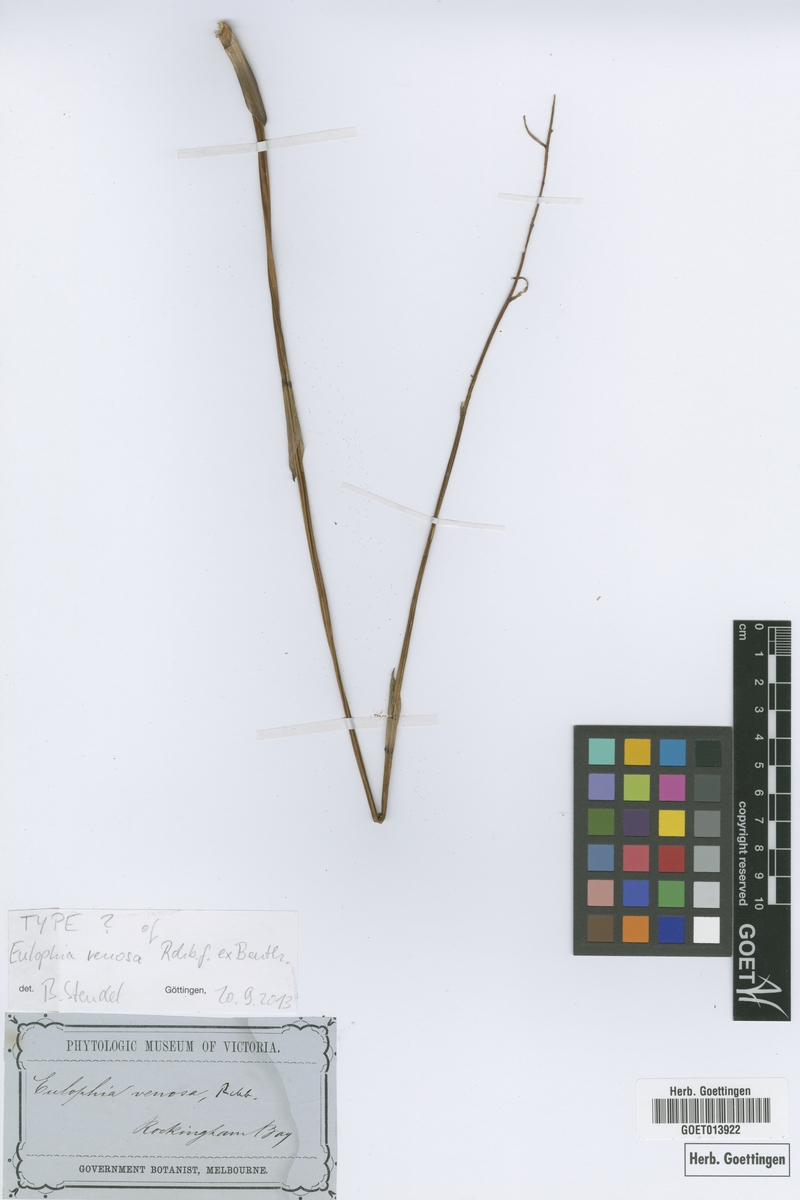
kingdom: Plantae
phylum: Tracheophyta
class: Liliopsida
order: Asparagales
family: Orchidaceae
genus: Eulophia
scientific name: Eulophia venosa
